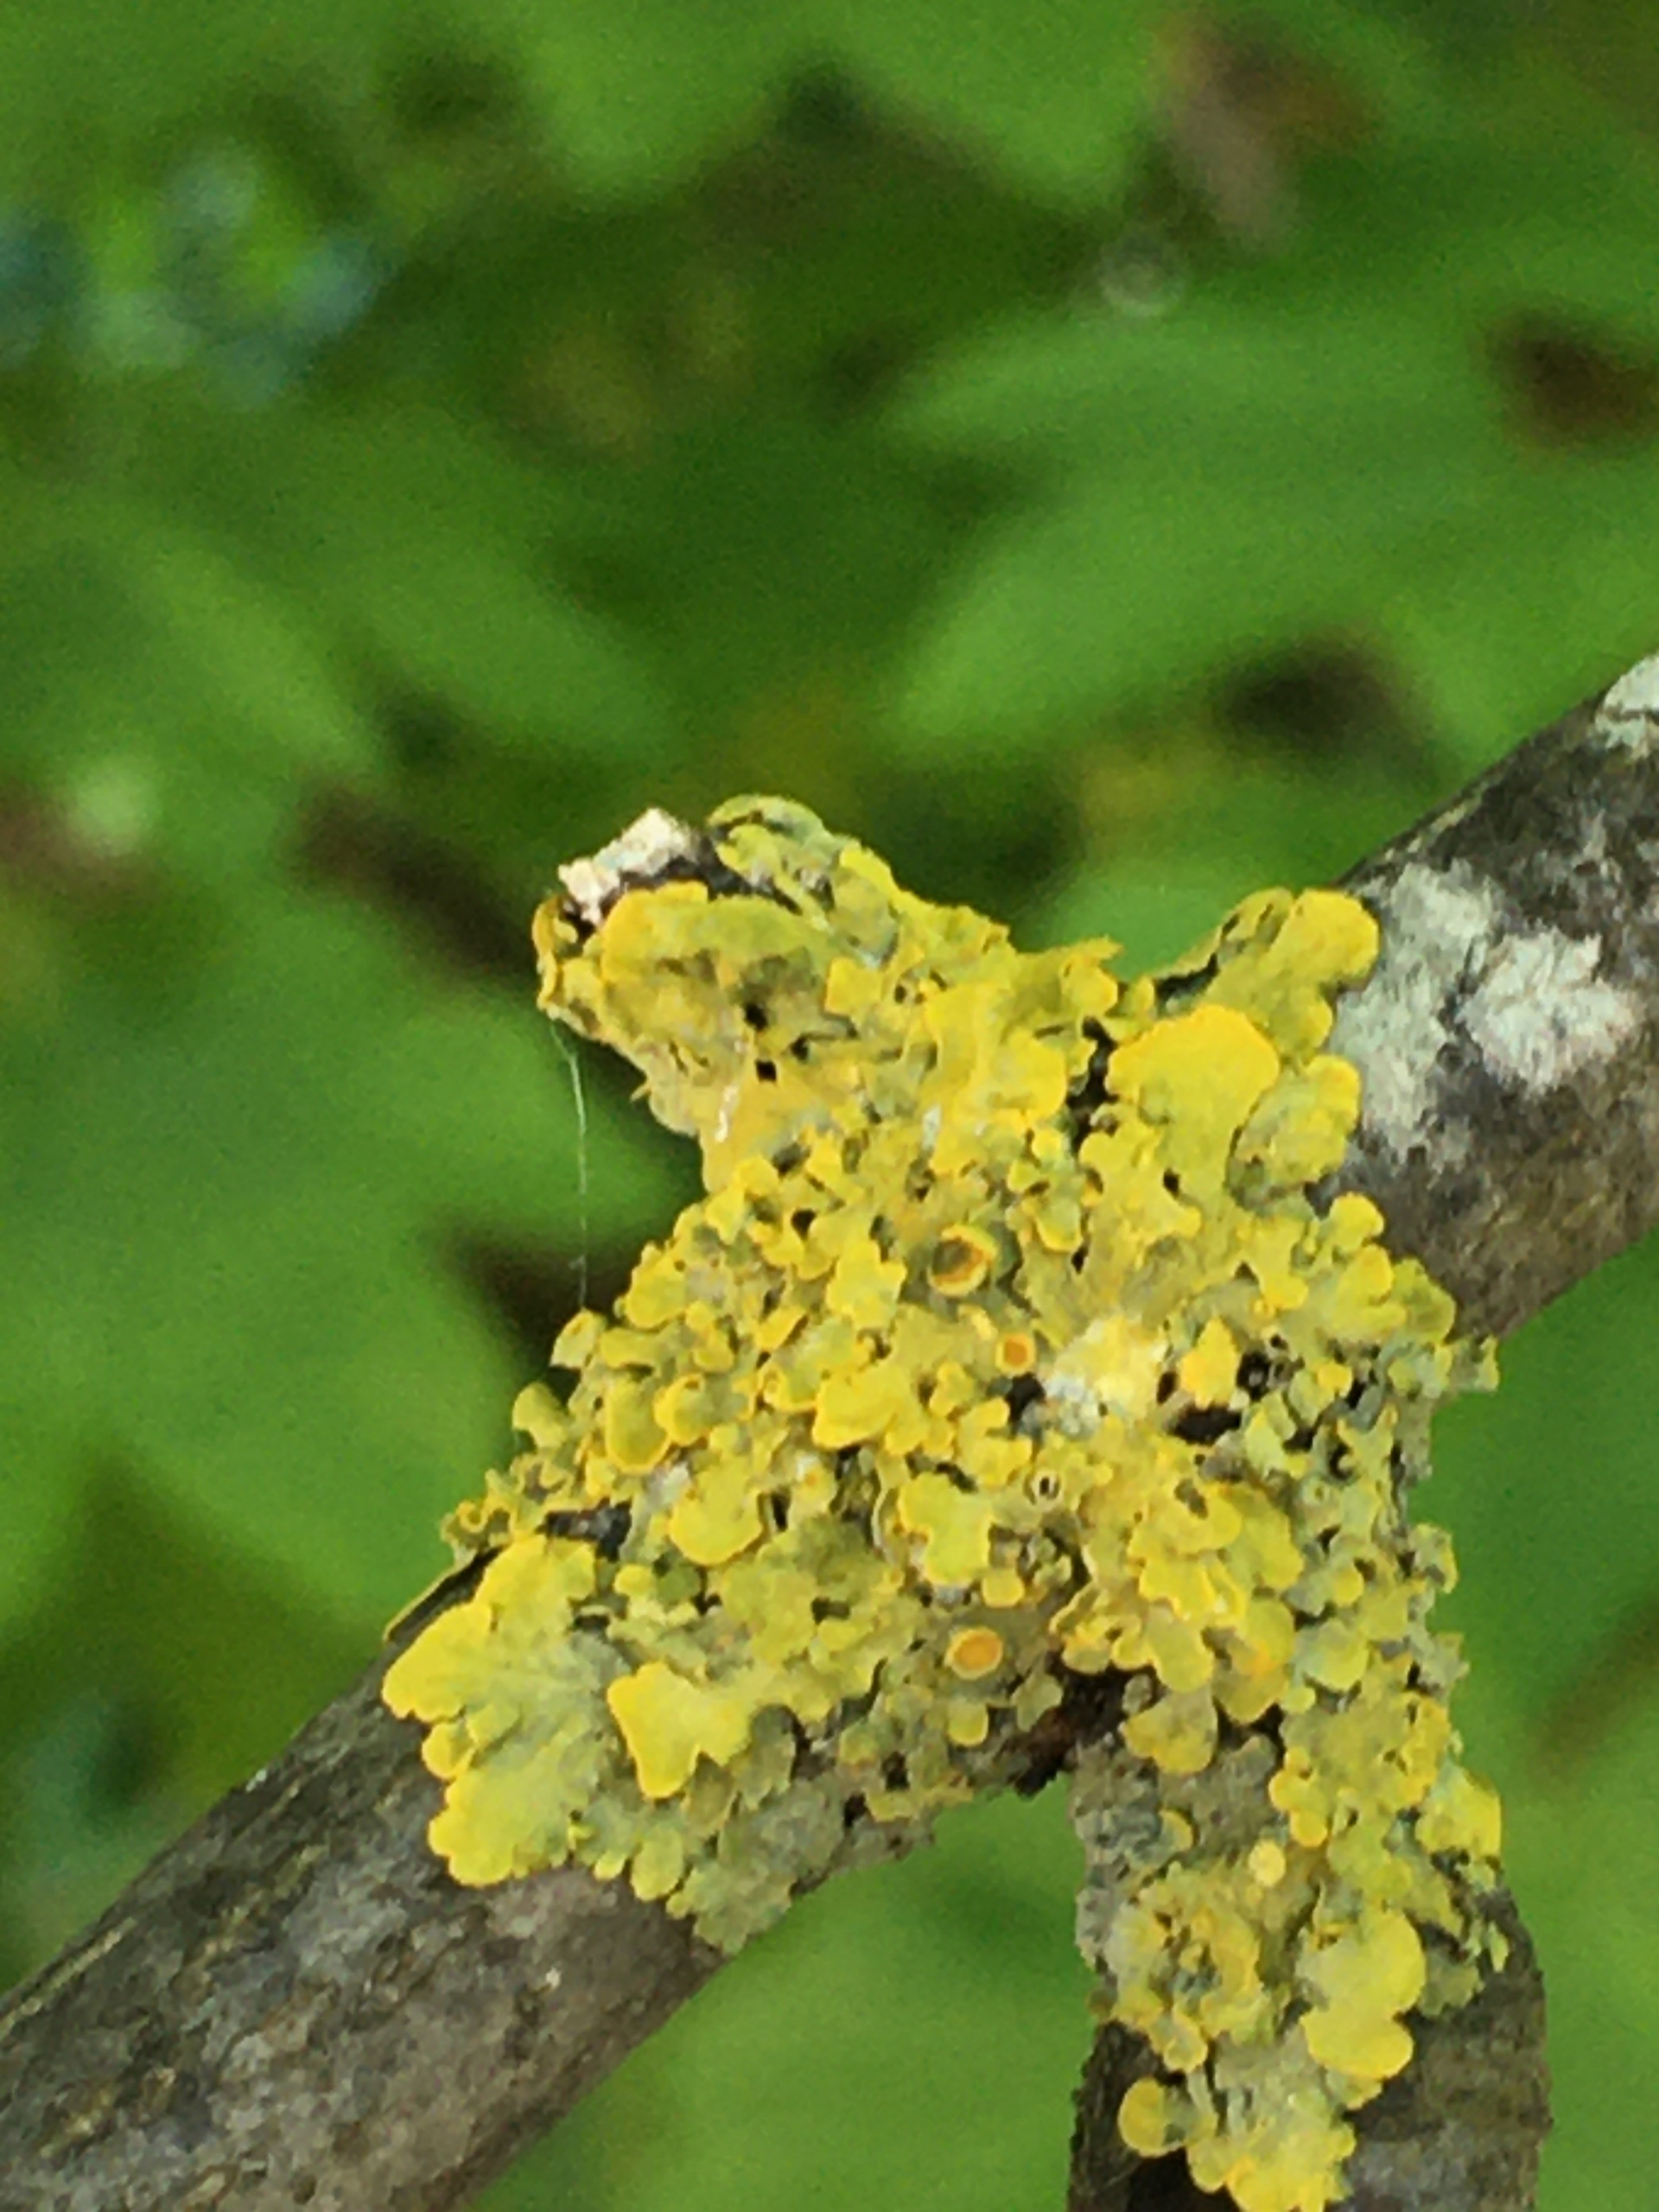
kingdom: Fungi
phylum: Ascomycota
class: Lecanoromycetes
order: Teloschistales
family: Teloschistaceae
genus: Xanthoria
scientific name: Xanthoria parietina
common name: Almindelig væggelav
